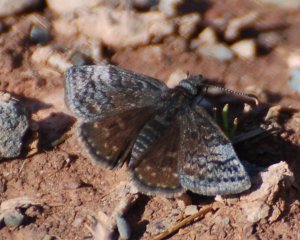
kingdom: Animalia
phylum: Arthropoda
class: Insecta
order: Lepidoptera
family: Hesperiidae
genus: Erynnis
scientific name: Erynnis icelus
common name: Dreamy Duskywing
